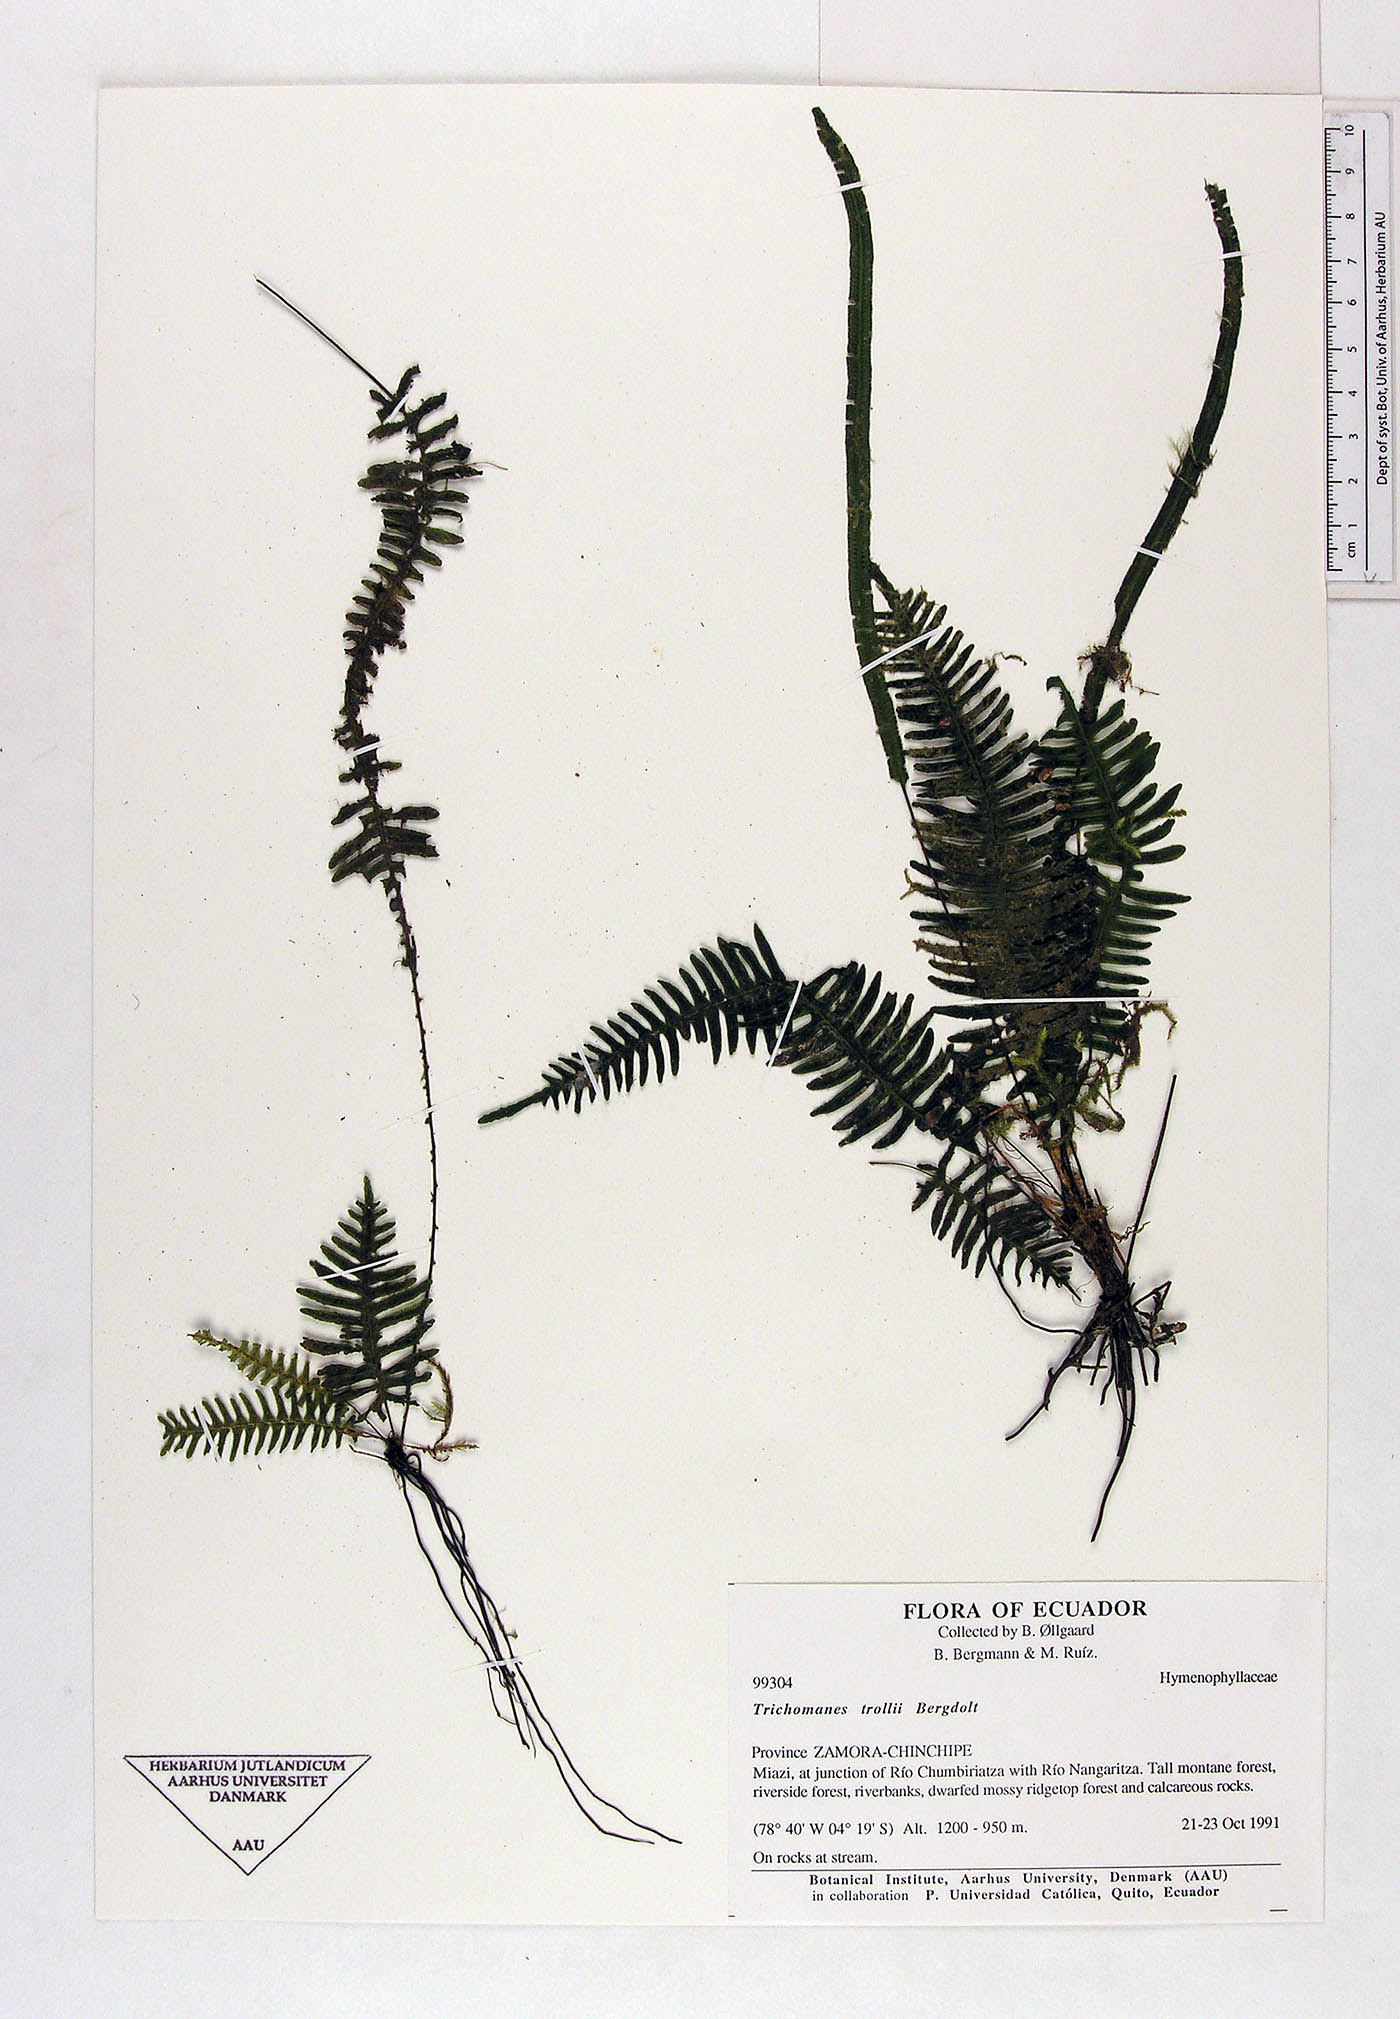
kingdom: Plantae
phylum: Tracheophyta
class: Polypodiopsida
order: Hymenophyllales
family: Hymenophyllaceae
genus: Trichomanes
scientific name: Trichomanes trollii
